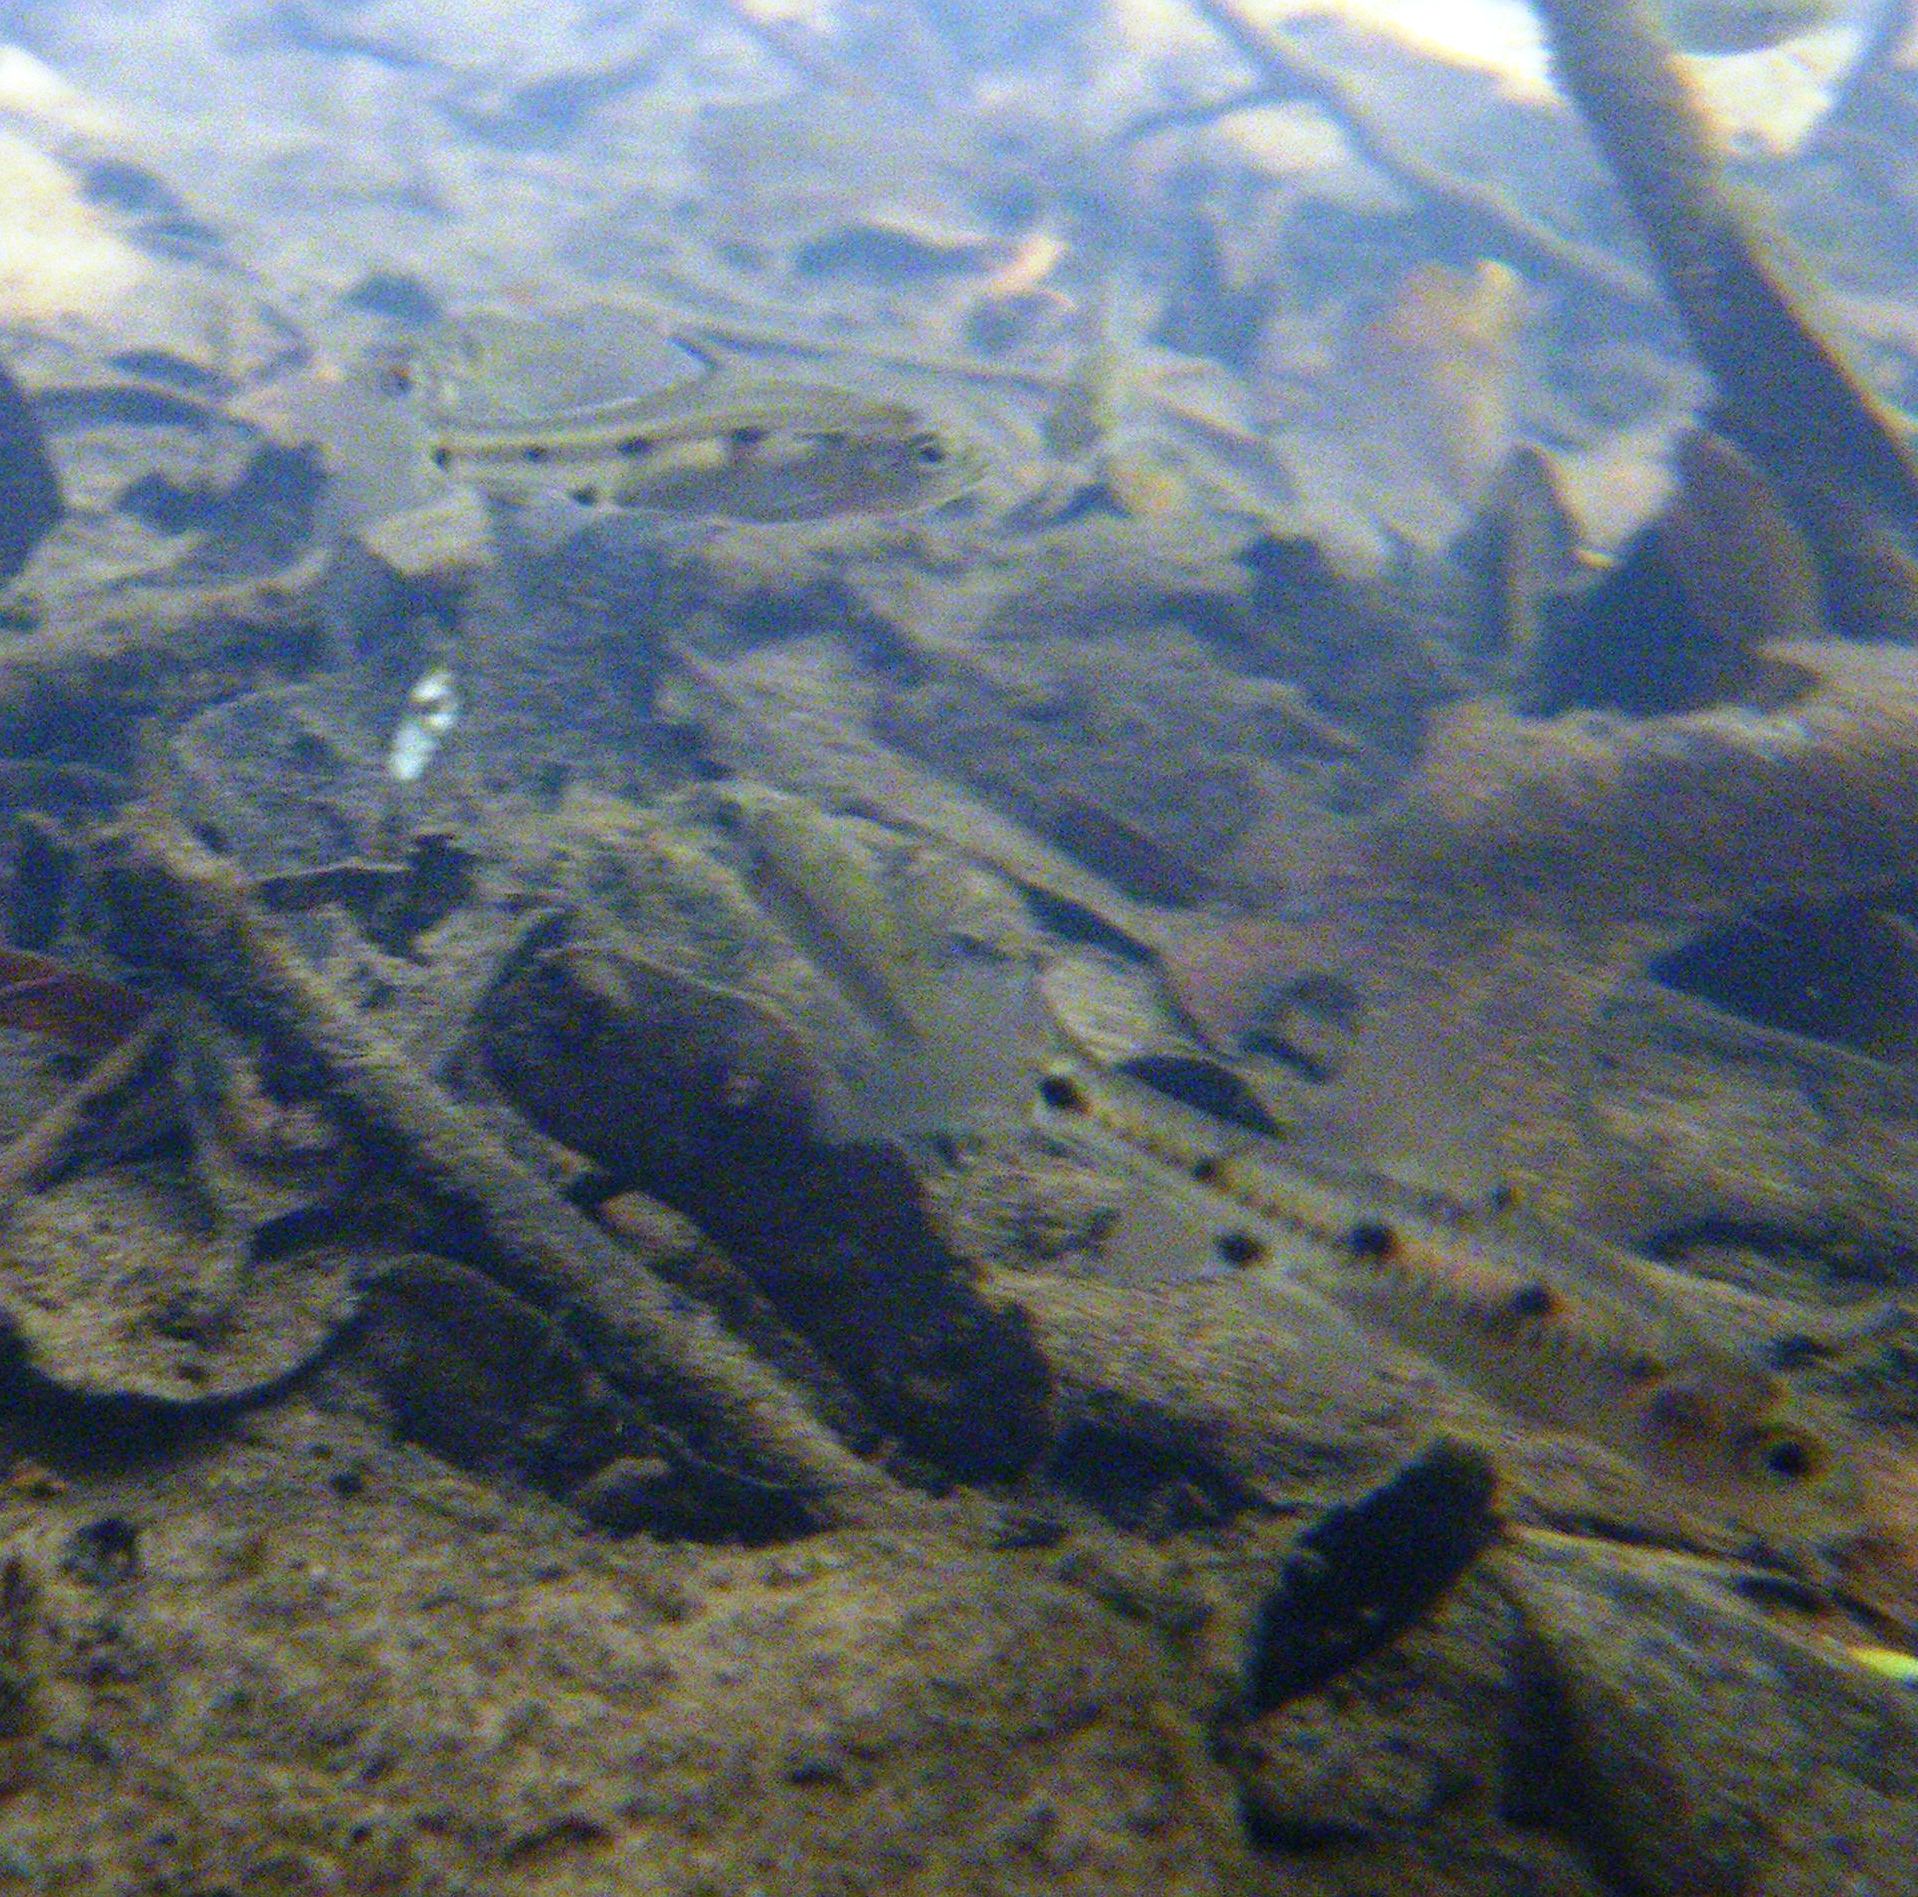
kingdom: Animalia
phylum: Chordata
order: Cypriniformes
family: Cyprinidae
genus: Enteromius
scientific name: Enteromius neefi
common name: Sidespot barb
